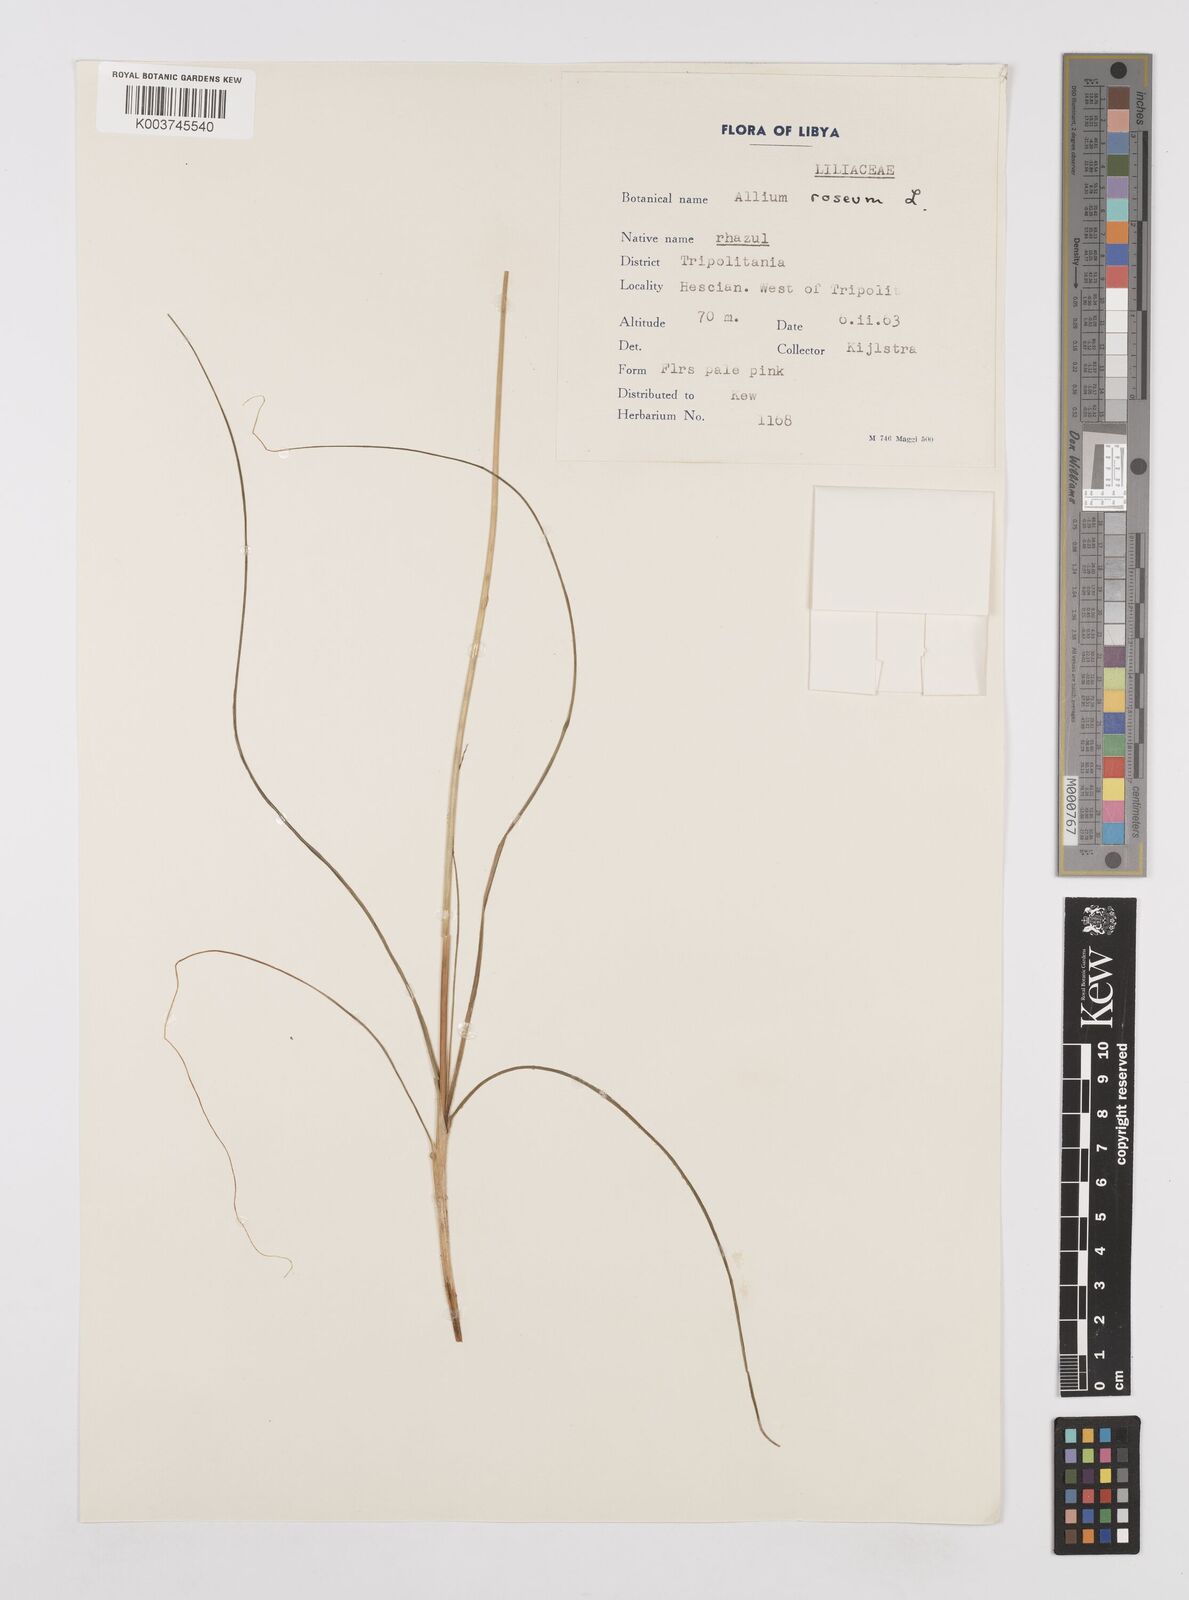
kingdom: Plantae
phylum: Tracheophyta
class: Liliopsida
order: Asparagales
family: Amaryllidaceae
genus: Allium
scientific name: Allium roseum
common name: Rosy garlic
